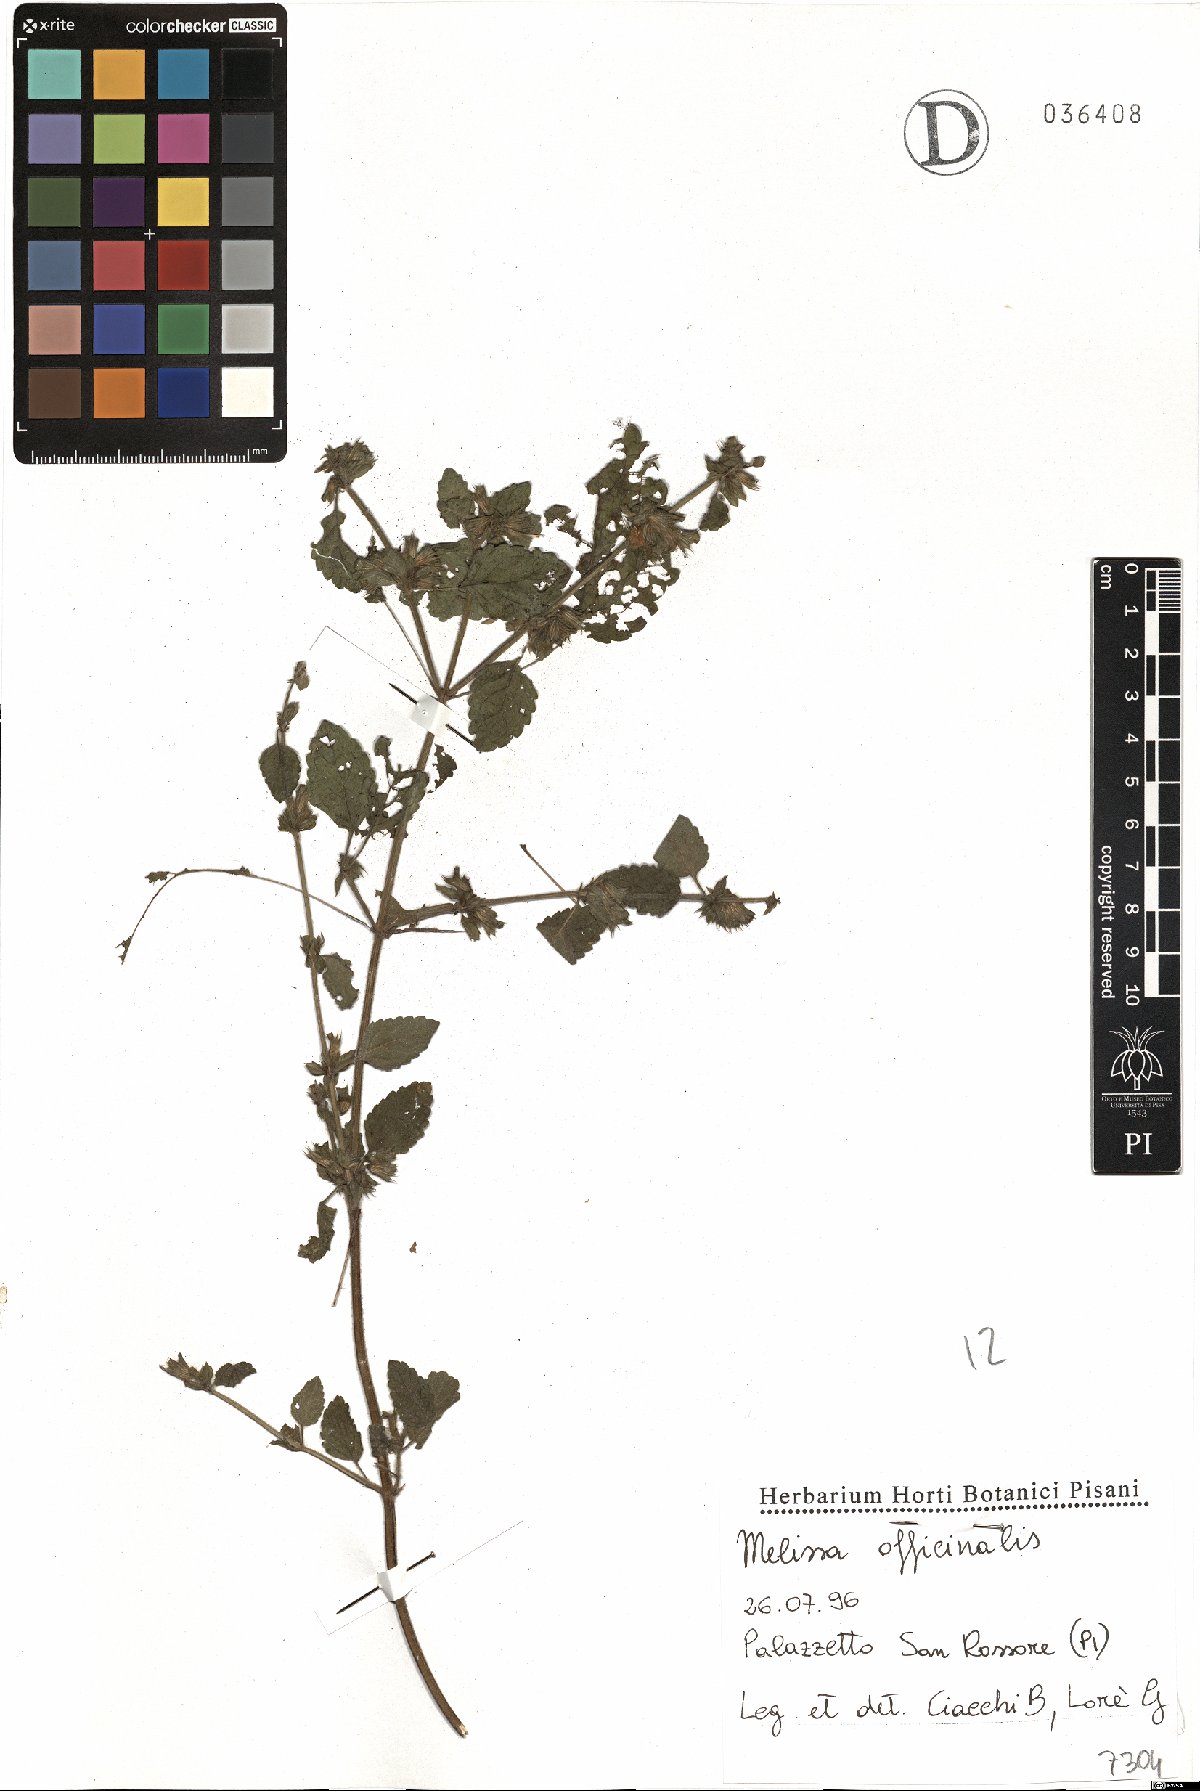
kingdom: Plantae
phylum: Tracheophyta
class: Magnoliopsida
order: Lamiales
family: Lamiaceae
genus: Melissa
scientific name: Melissa officinalis
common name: Balm
